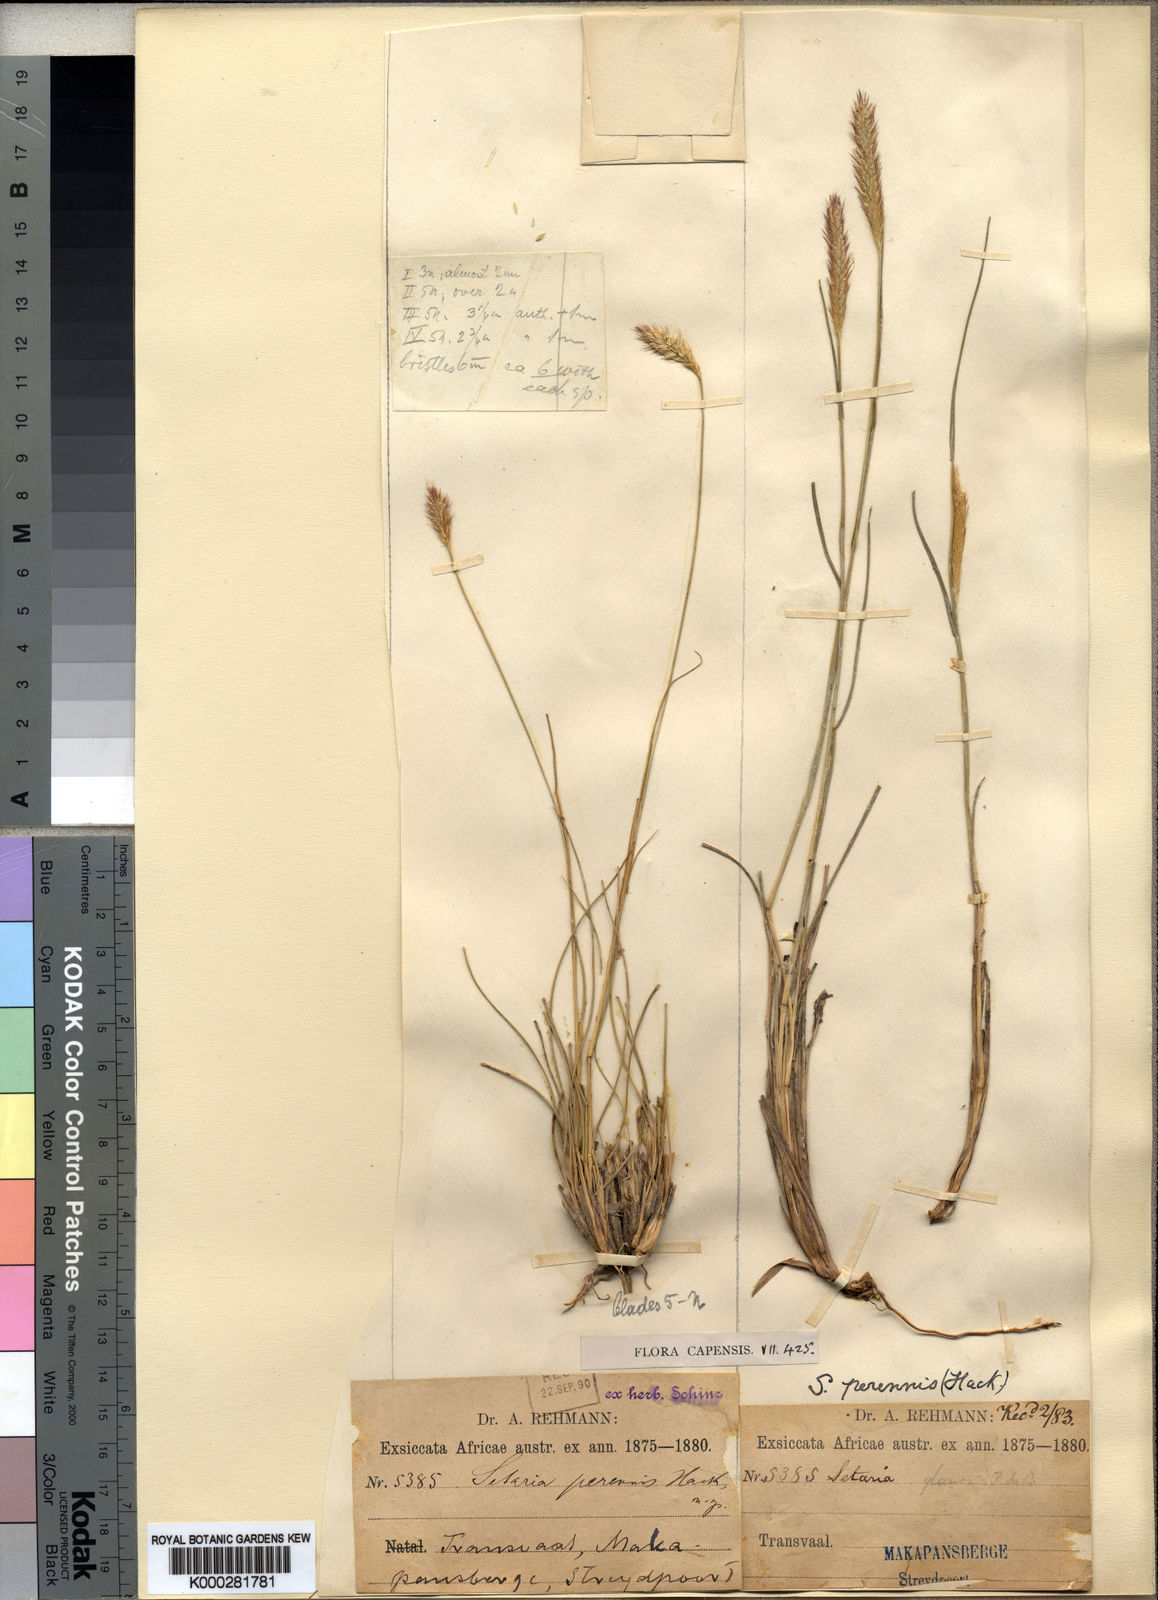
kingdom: Plantae
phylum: Tracheophyta
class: Liliopsida
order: Poales
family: Poaceae
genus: Setaria
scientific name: Setaria sphacelata
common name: African bristlegrass
